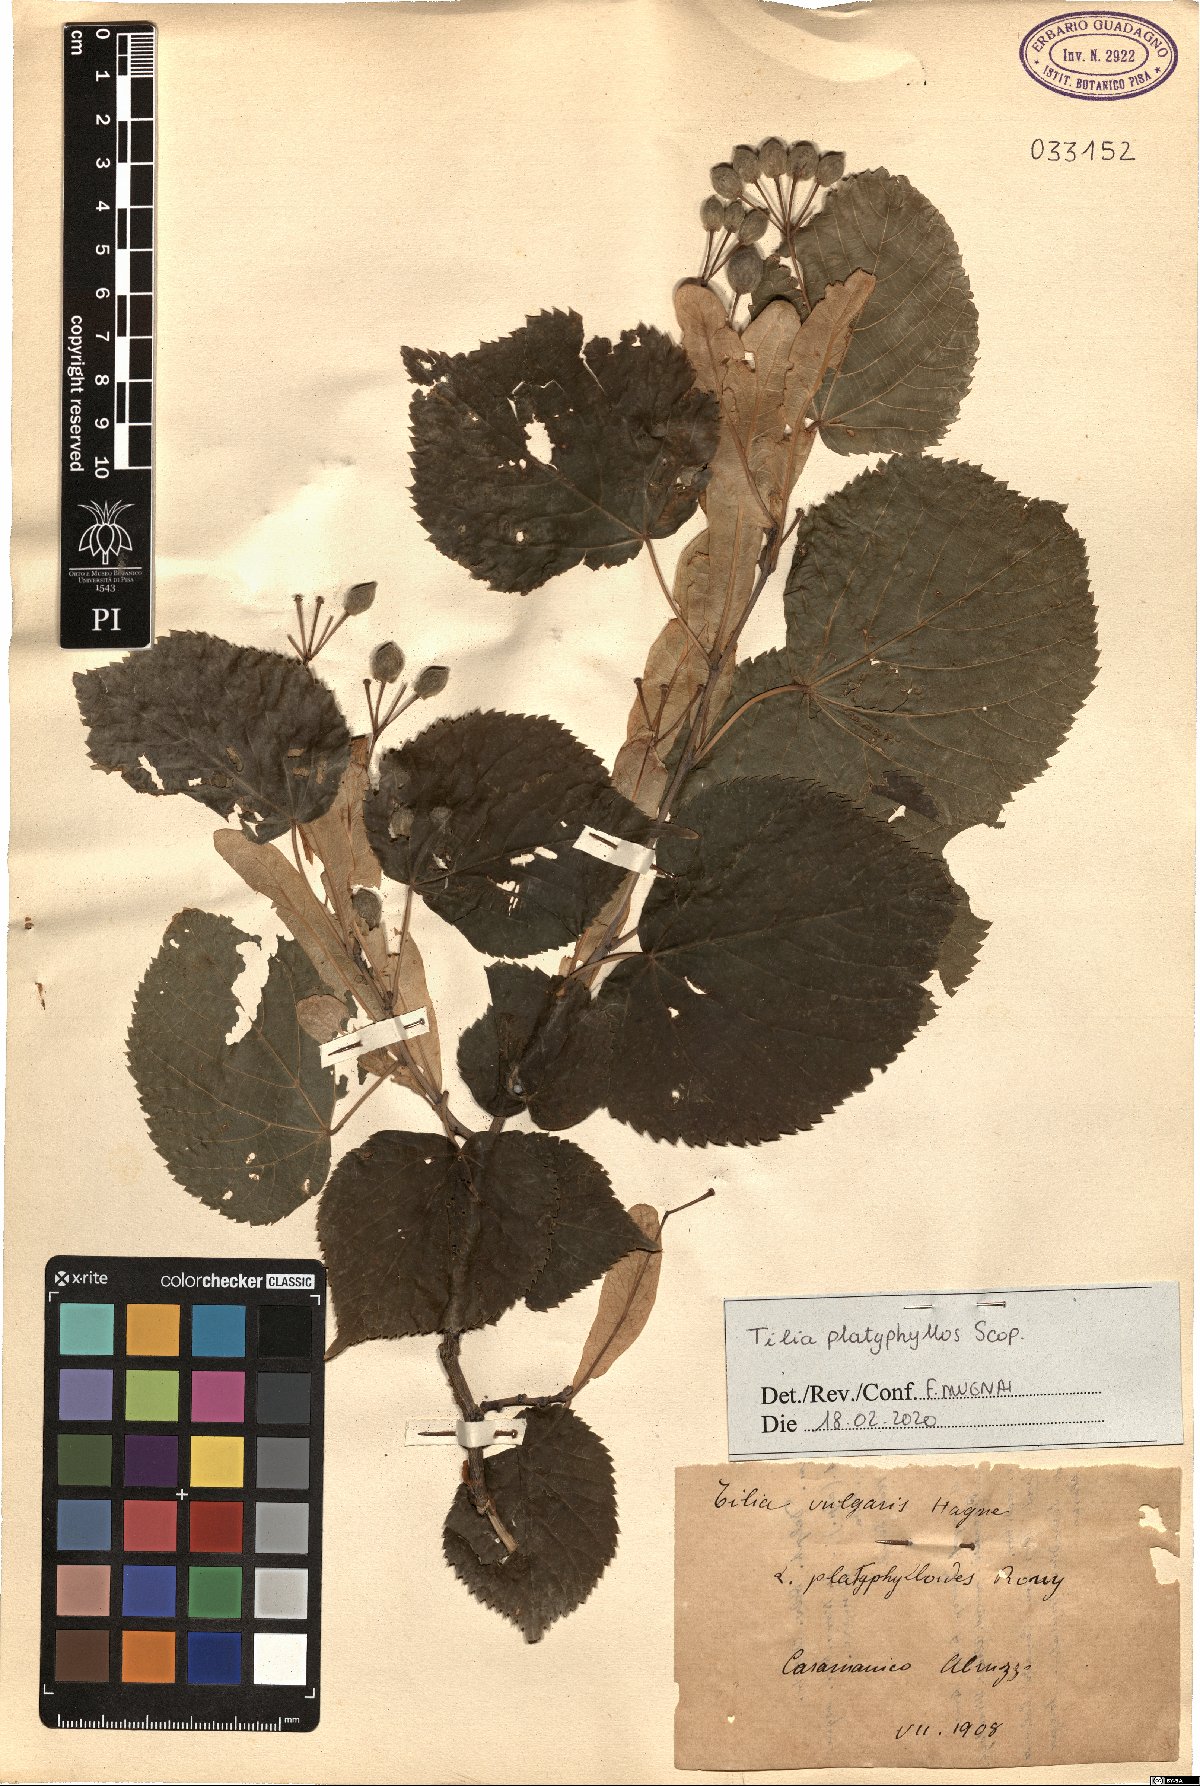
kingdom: Plantae
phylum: Tracheophyta
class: Magnoliopsida
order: Malvales
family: Malvaceae
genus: Tilia
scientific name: Tilia platyphyllos
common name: Large-leaved lime
